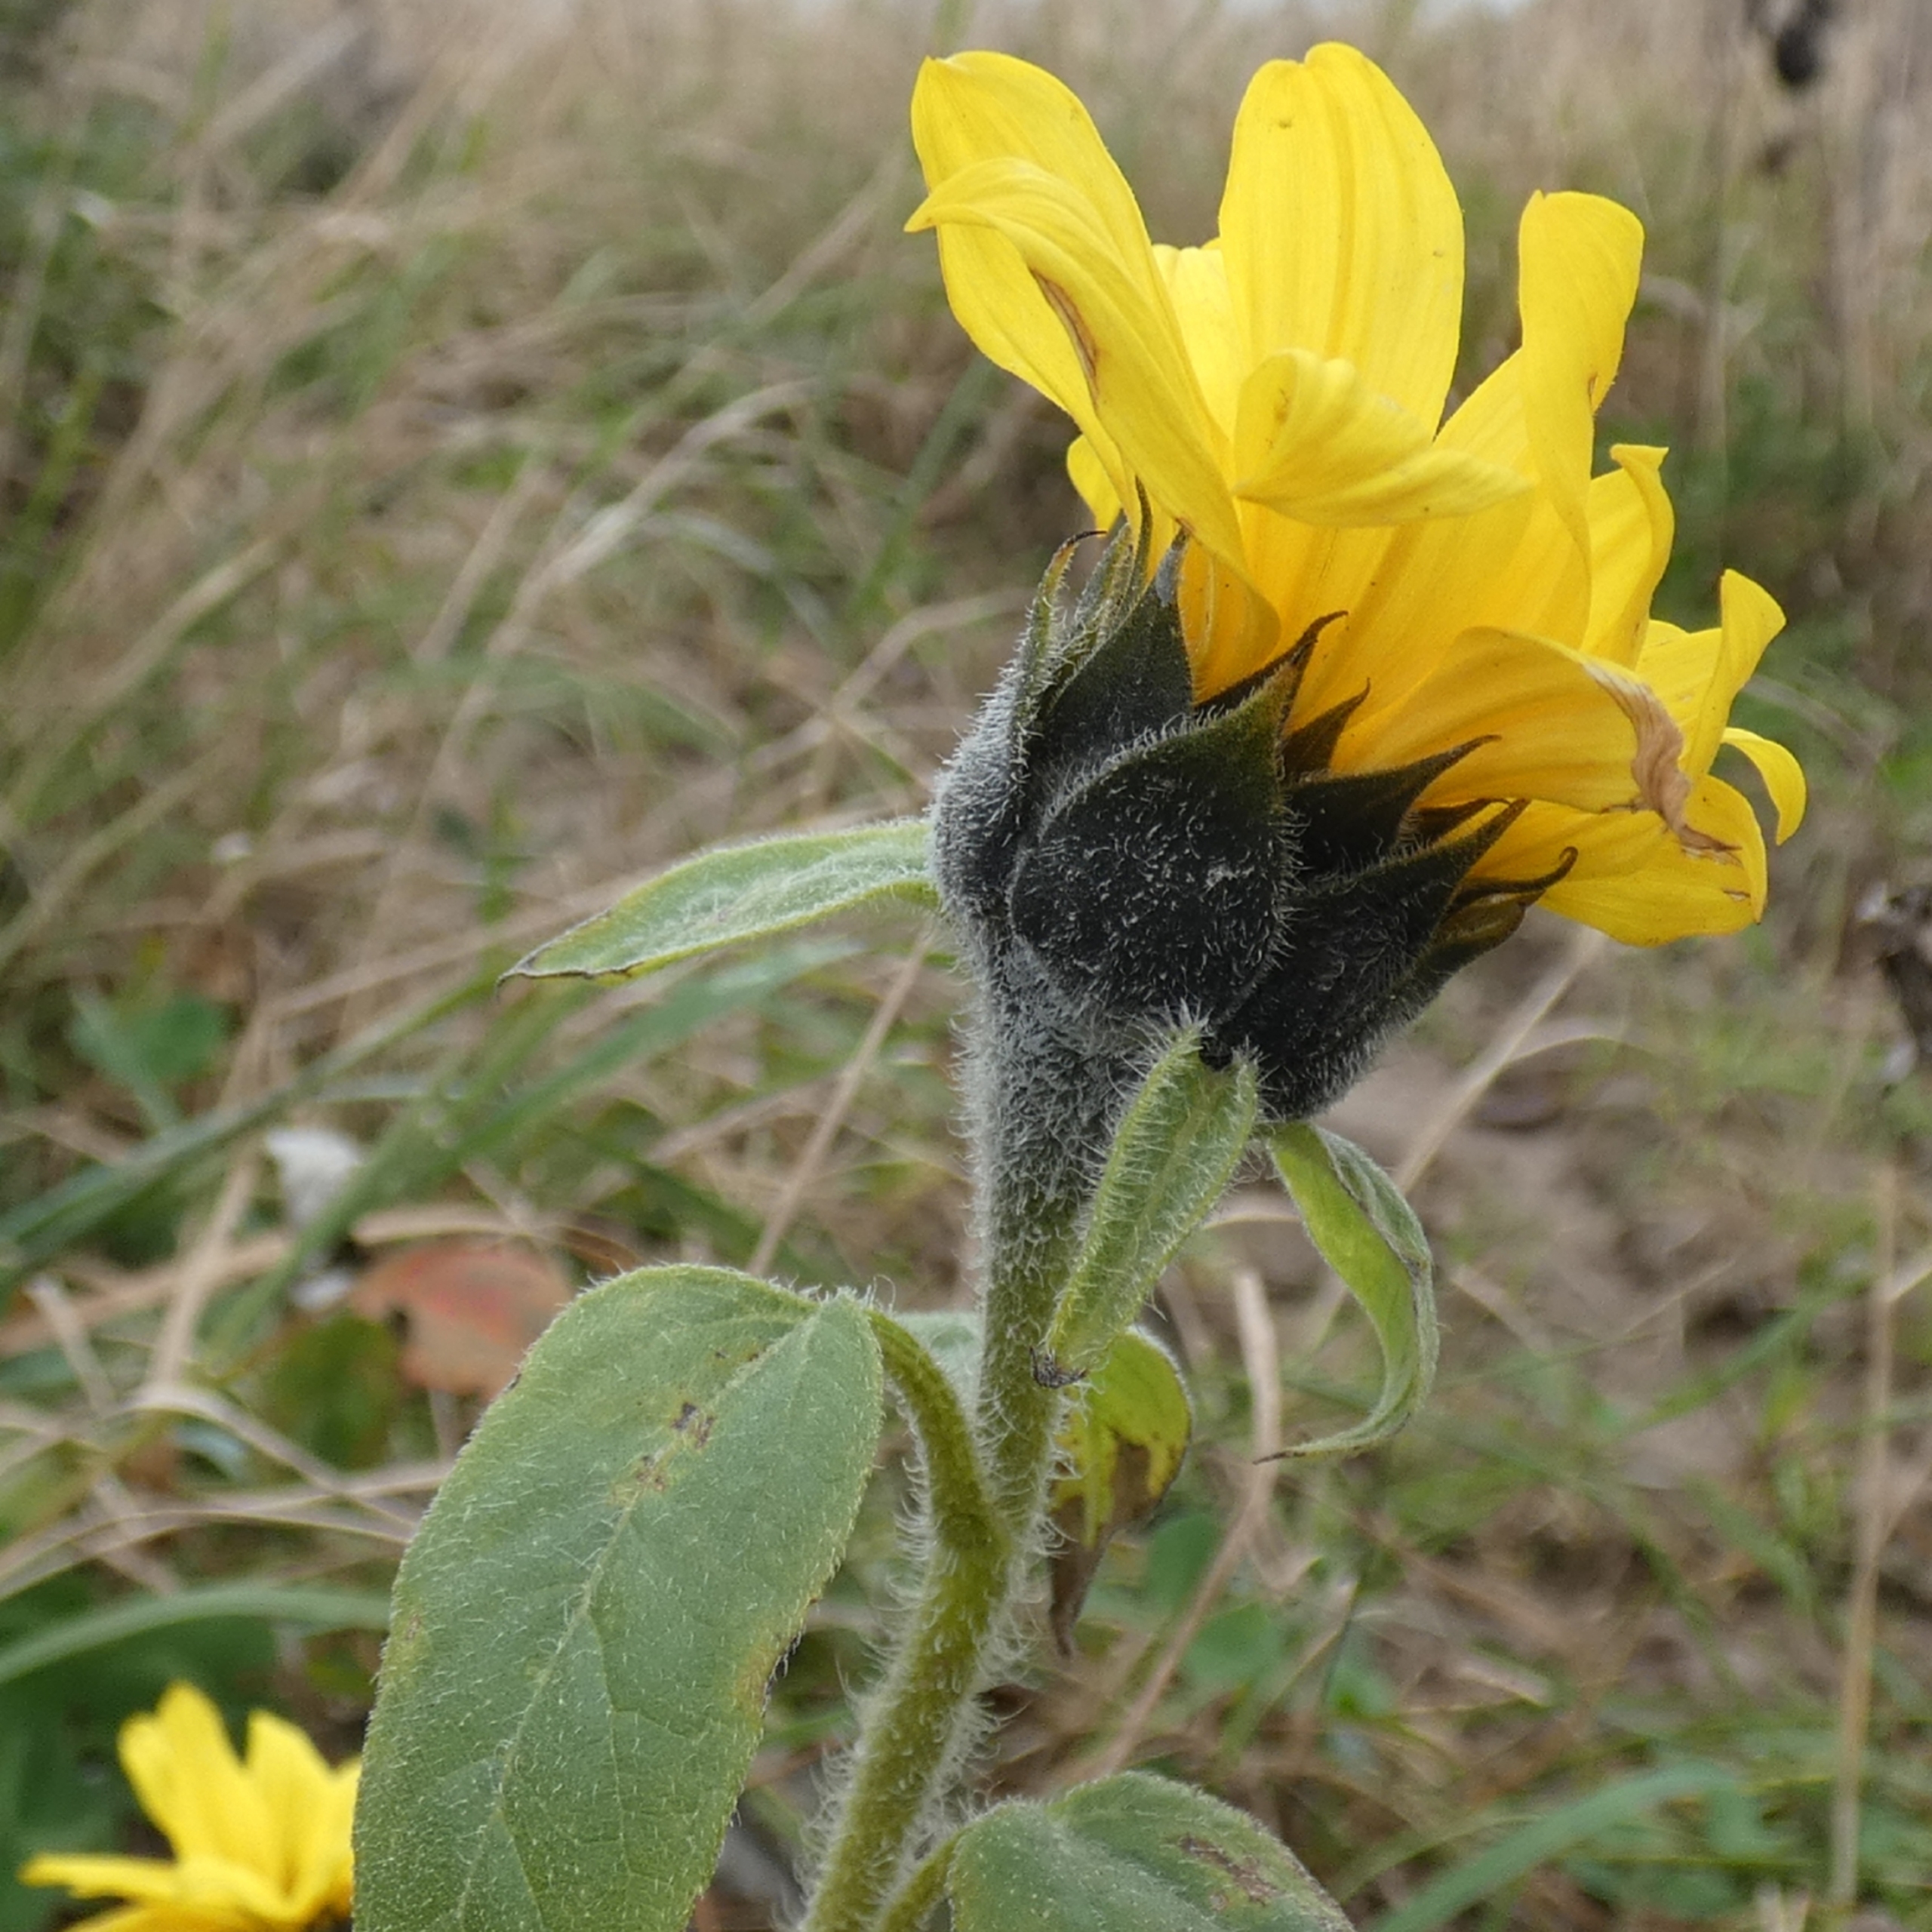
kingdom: Plantae
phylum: Tracheophyta
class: Magnoliopsida
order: Asterales
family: Asteraceae
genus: Helianthus
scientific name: Helianthus annuus
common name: Solsikke
